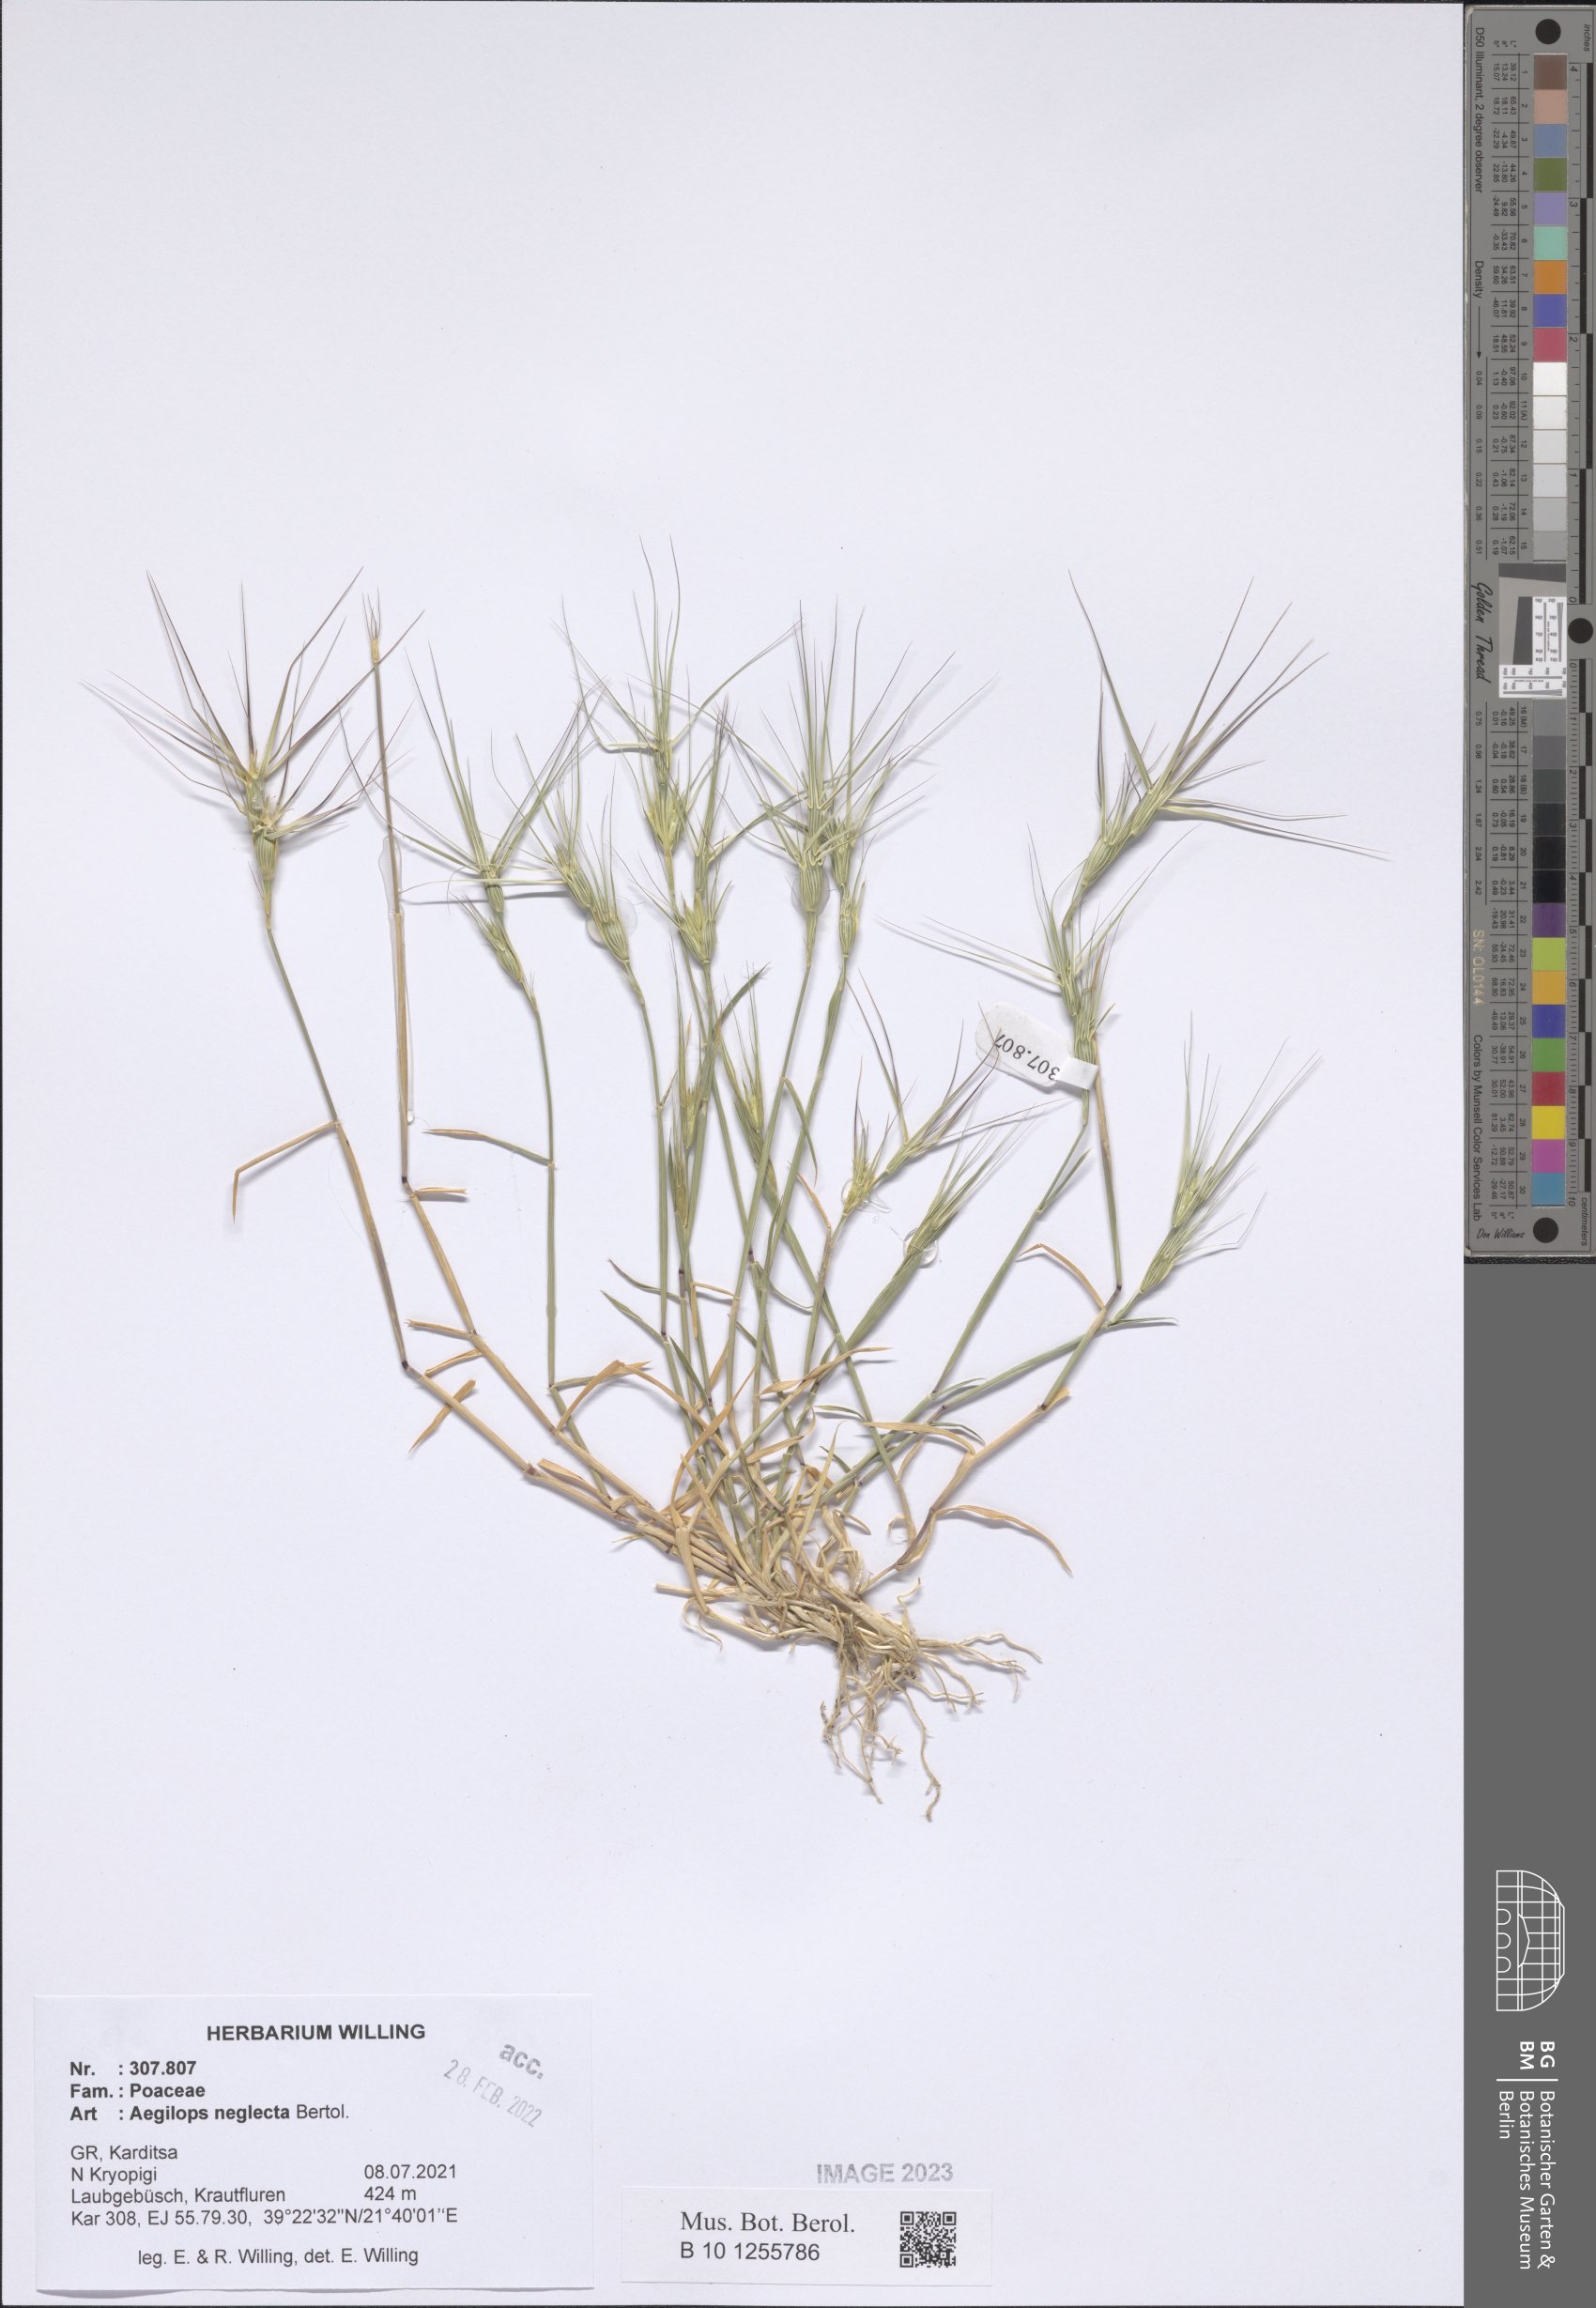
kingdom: Plantae
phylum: Tracheophyta
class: Liliopsida
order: Poales
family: Poaceae
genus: Aegilops
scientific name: Aegilops neglecta
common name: Three-awn goat grass
